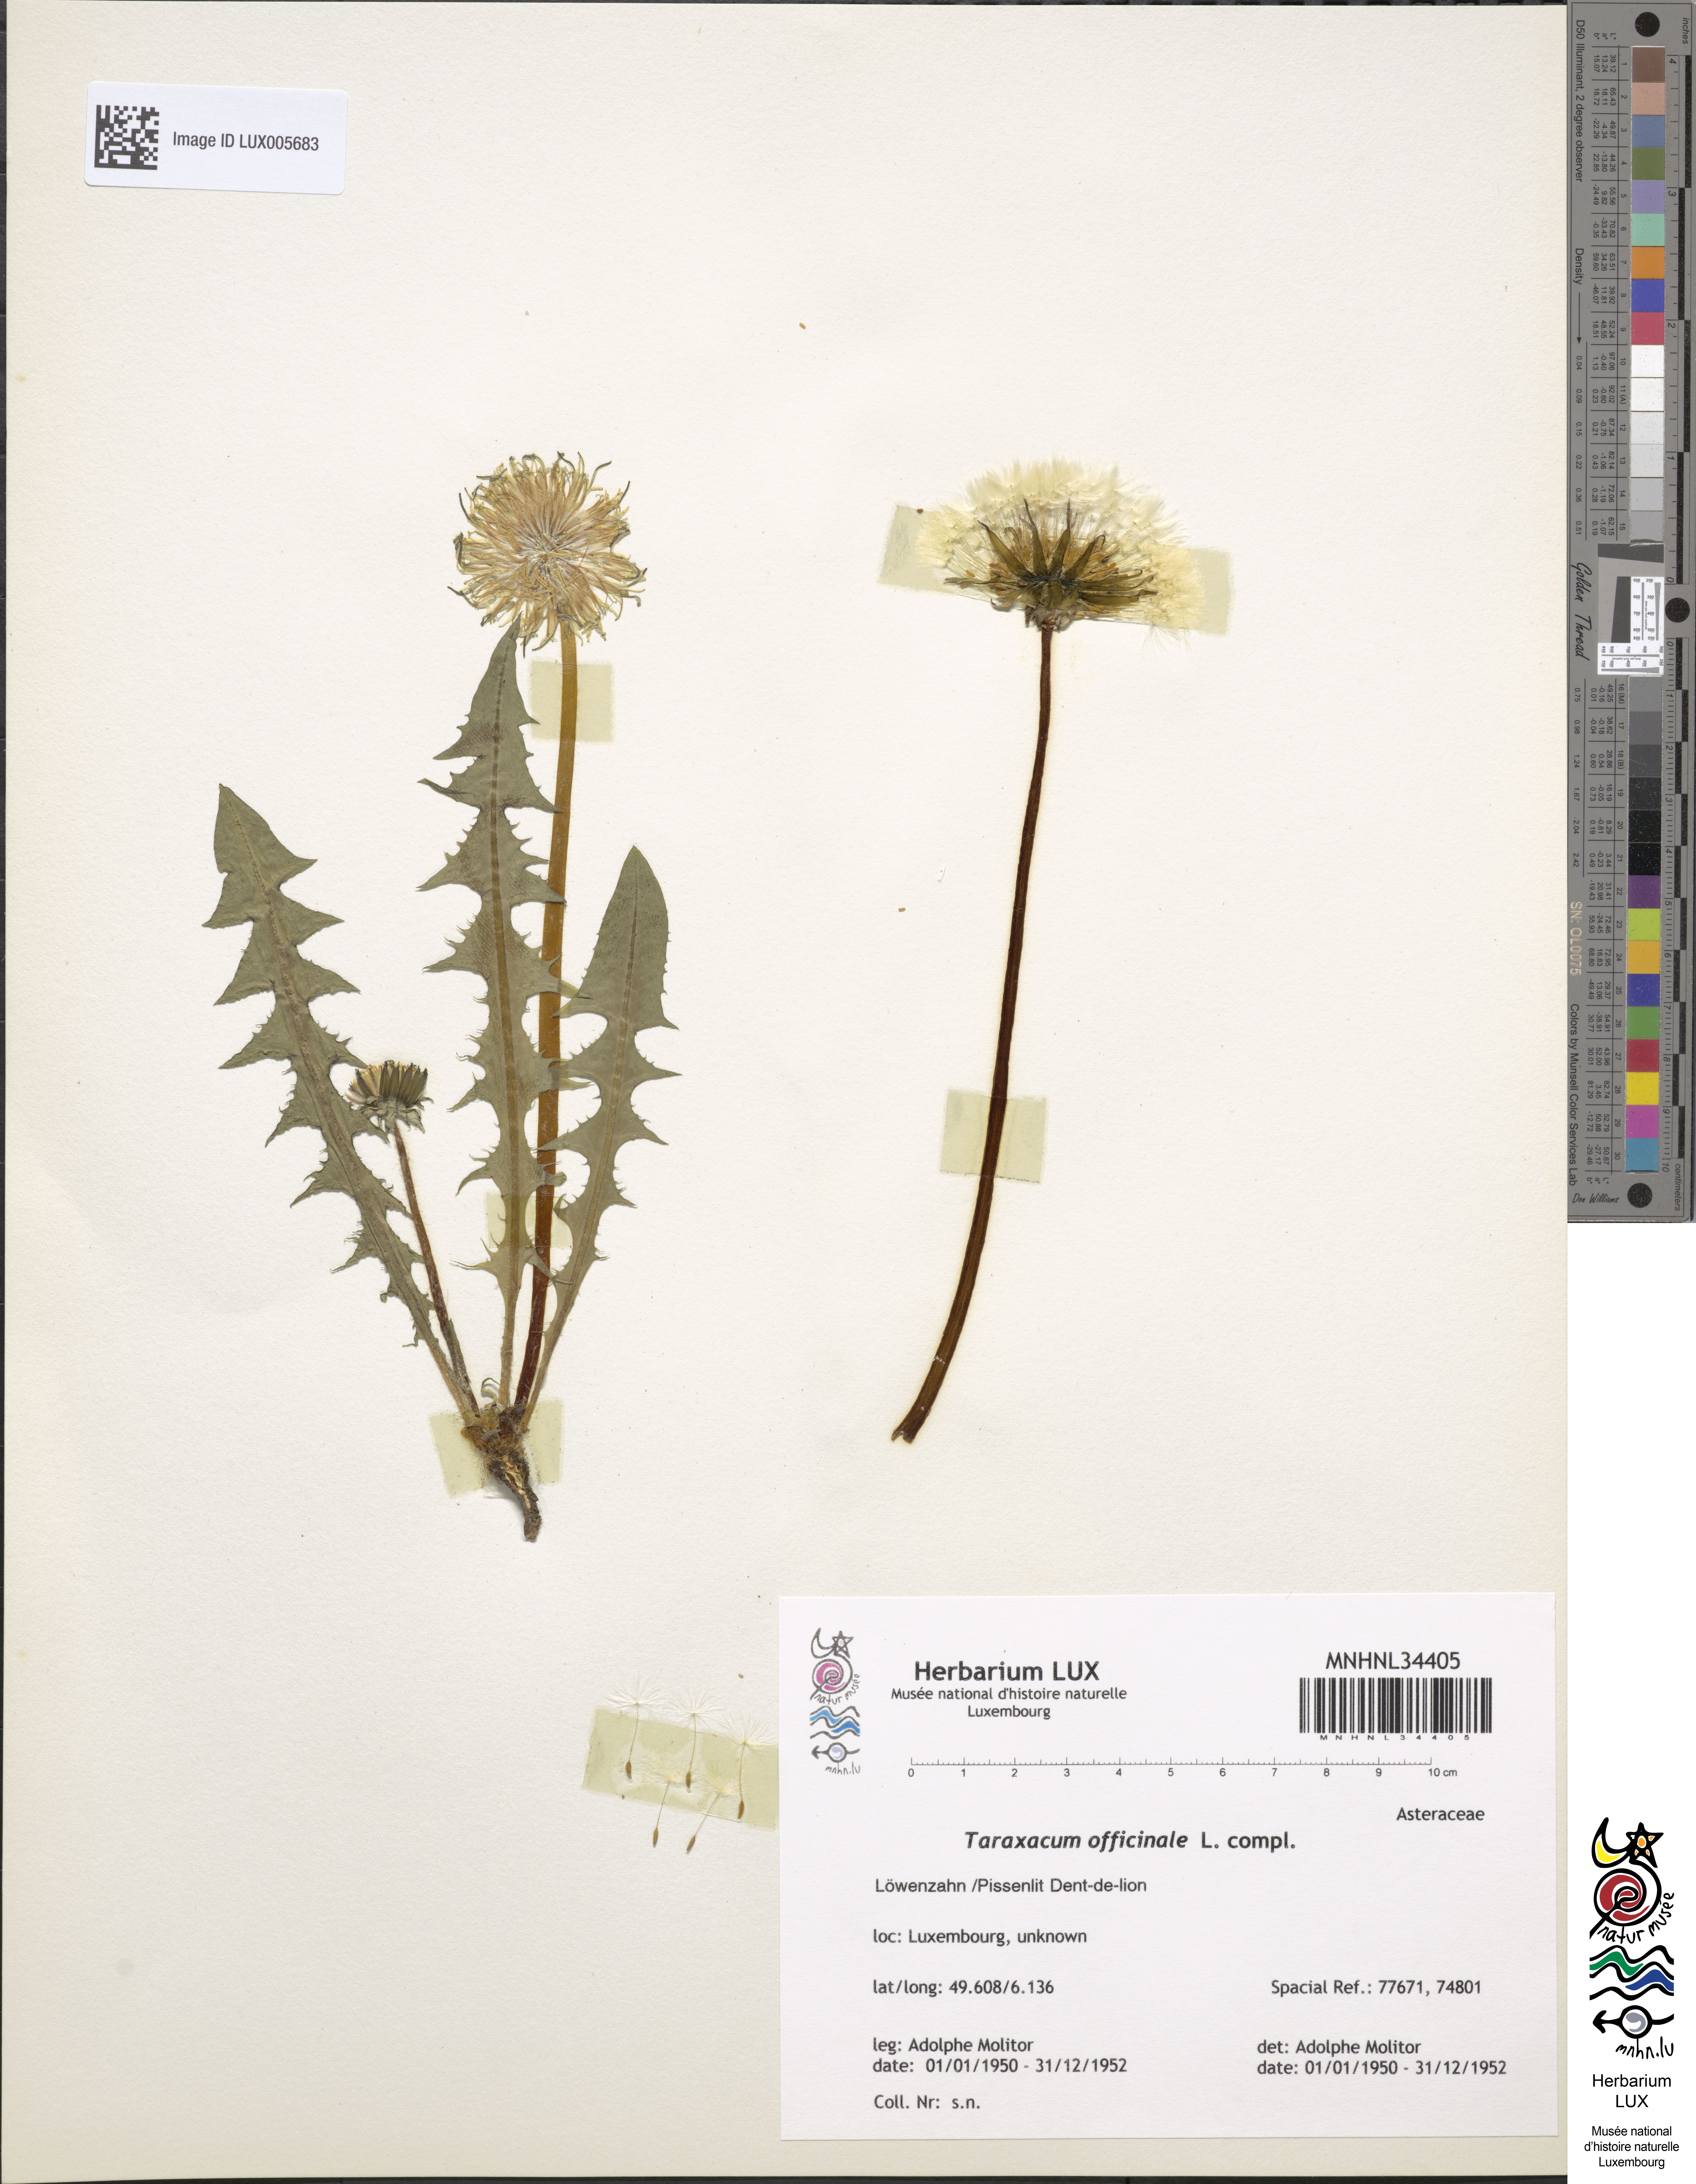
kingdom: Plantae
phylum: Tracheophyta
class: Magnoliopsida
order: Asterales
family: Asteraceae
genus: Taraxacum
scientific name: Taraxacum
